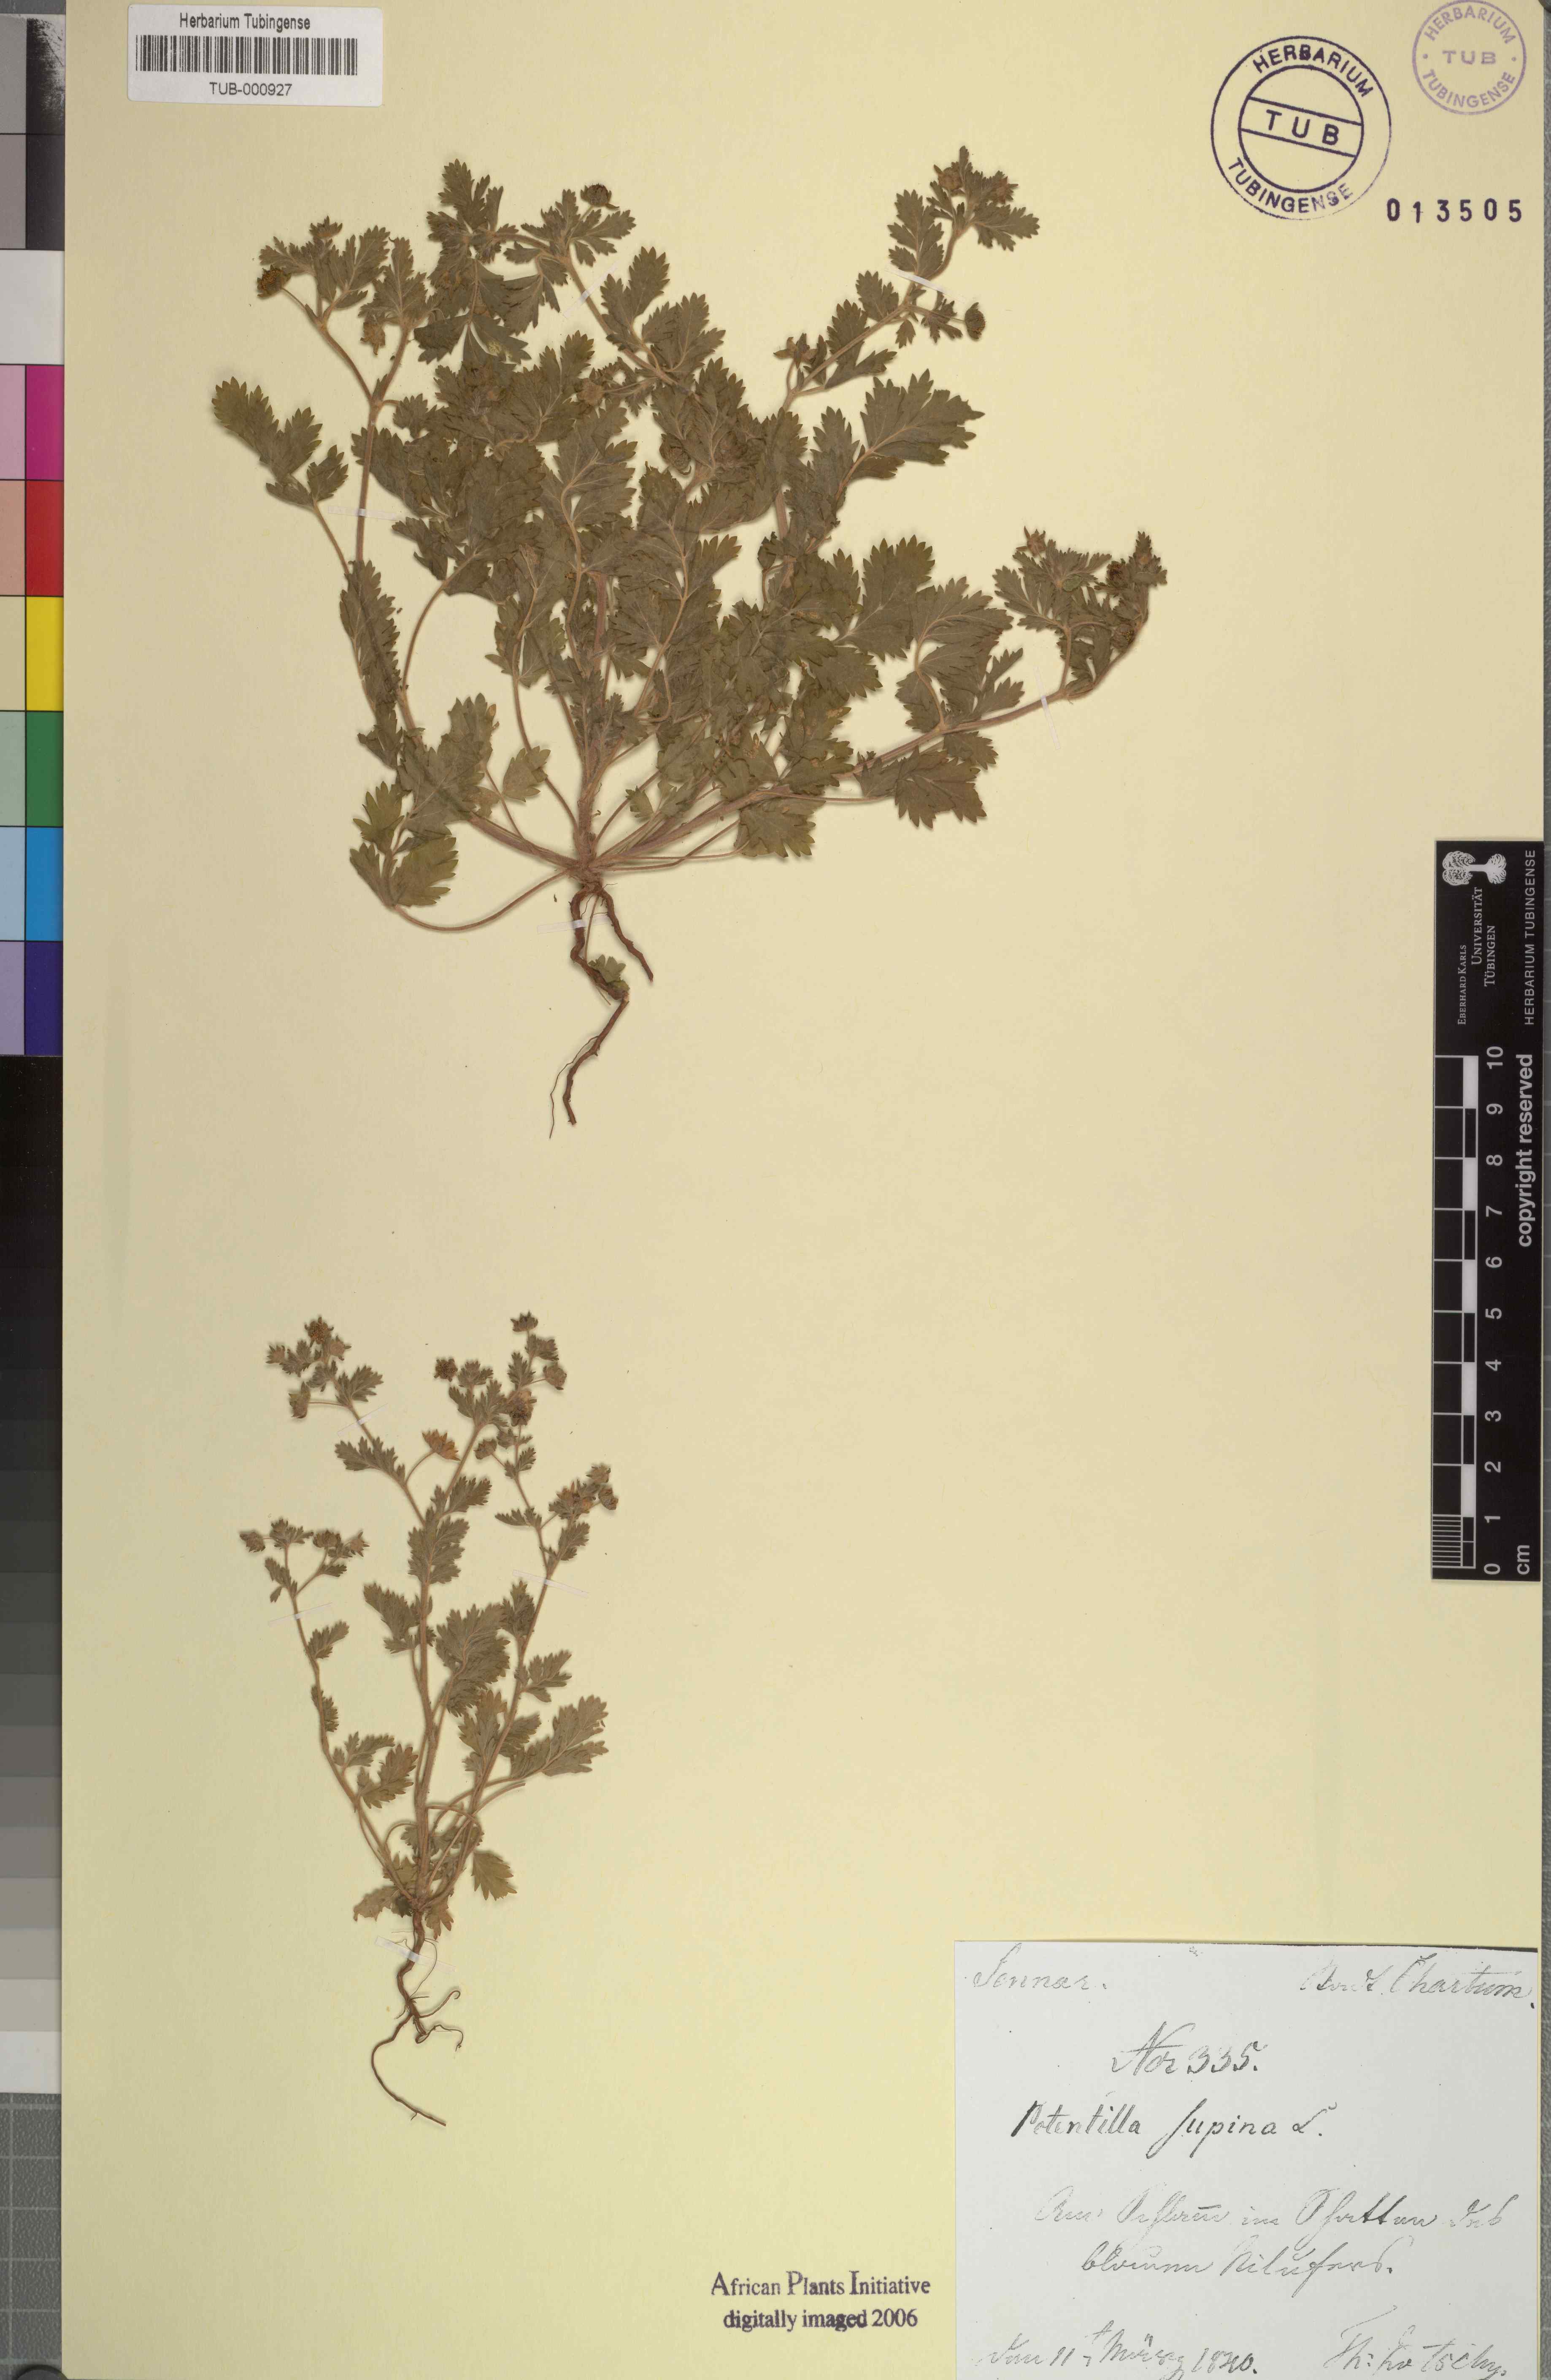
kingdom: Plantae
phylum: Tracheophyta
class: Magnoliopsida
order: Rosales
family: Rosaceae
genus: Potentilla
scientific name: Potentilla supina
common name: Prostrate cinquefoil
